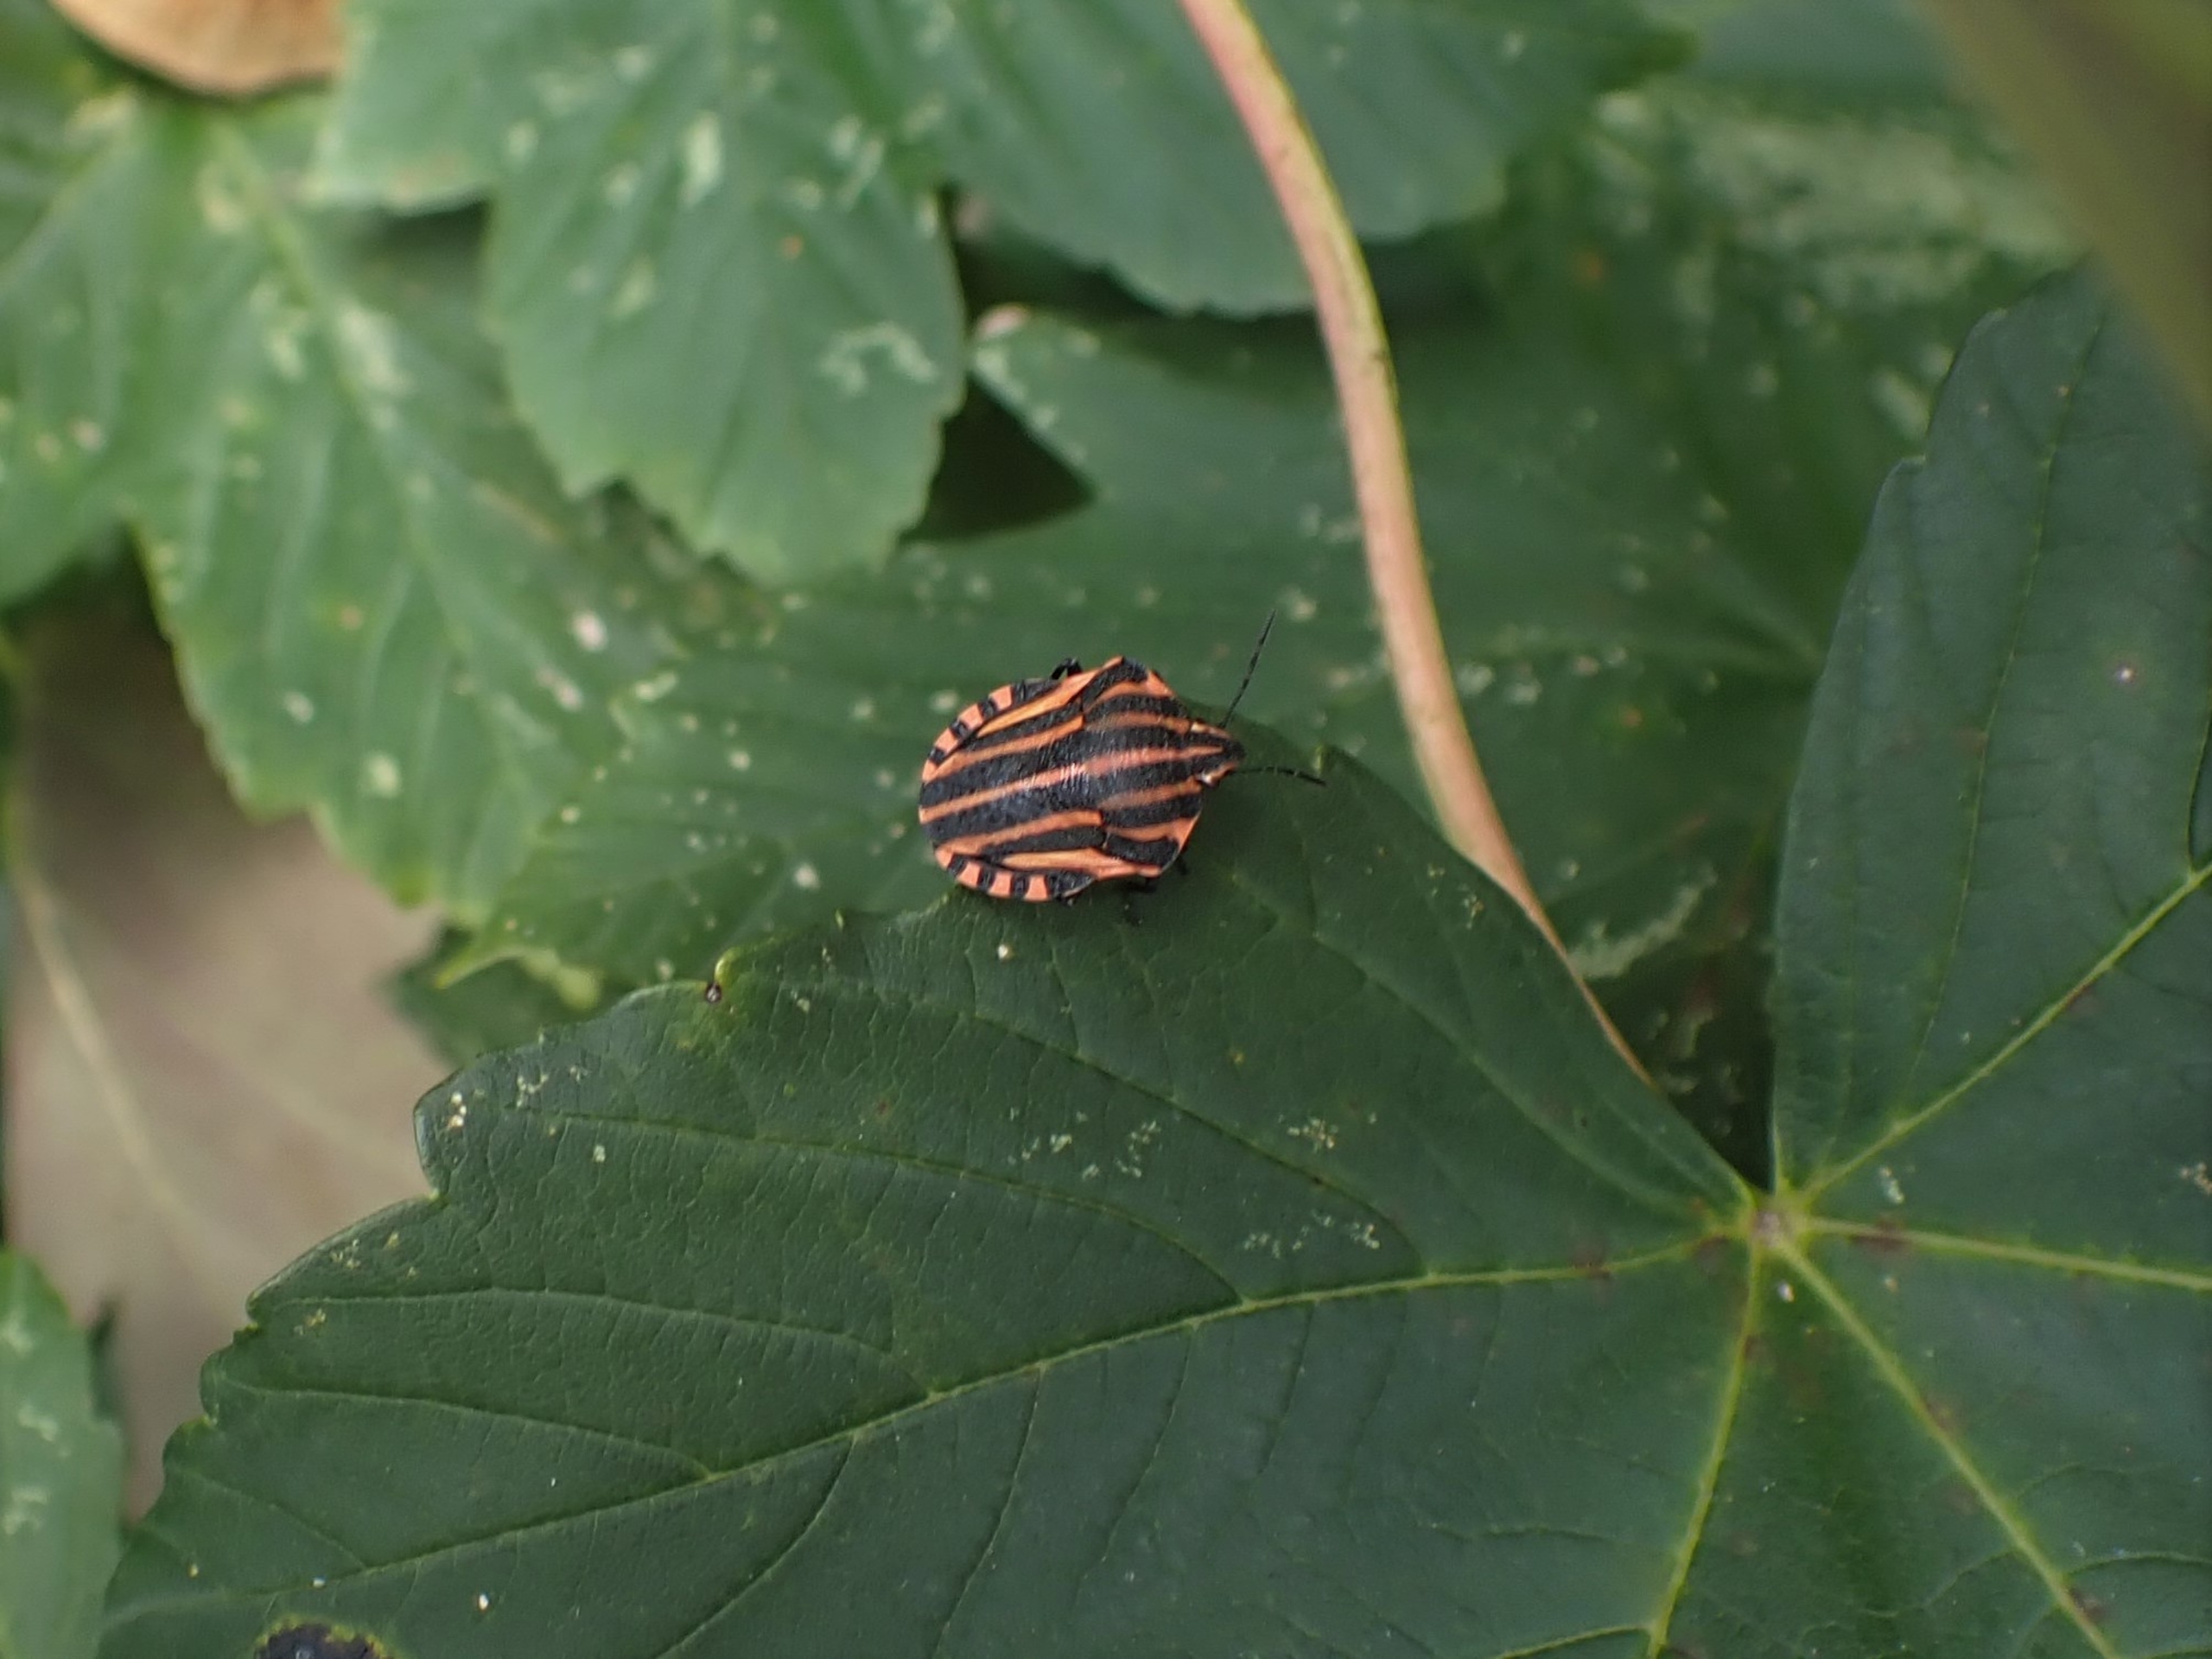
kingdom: Animalia
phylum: Arthropoda
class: Insecta
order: Hemiptera
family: Pentatomidae
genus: Graphosoma
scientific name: Graphosoma italicum
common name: Stribetæge
